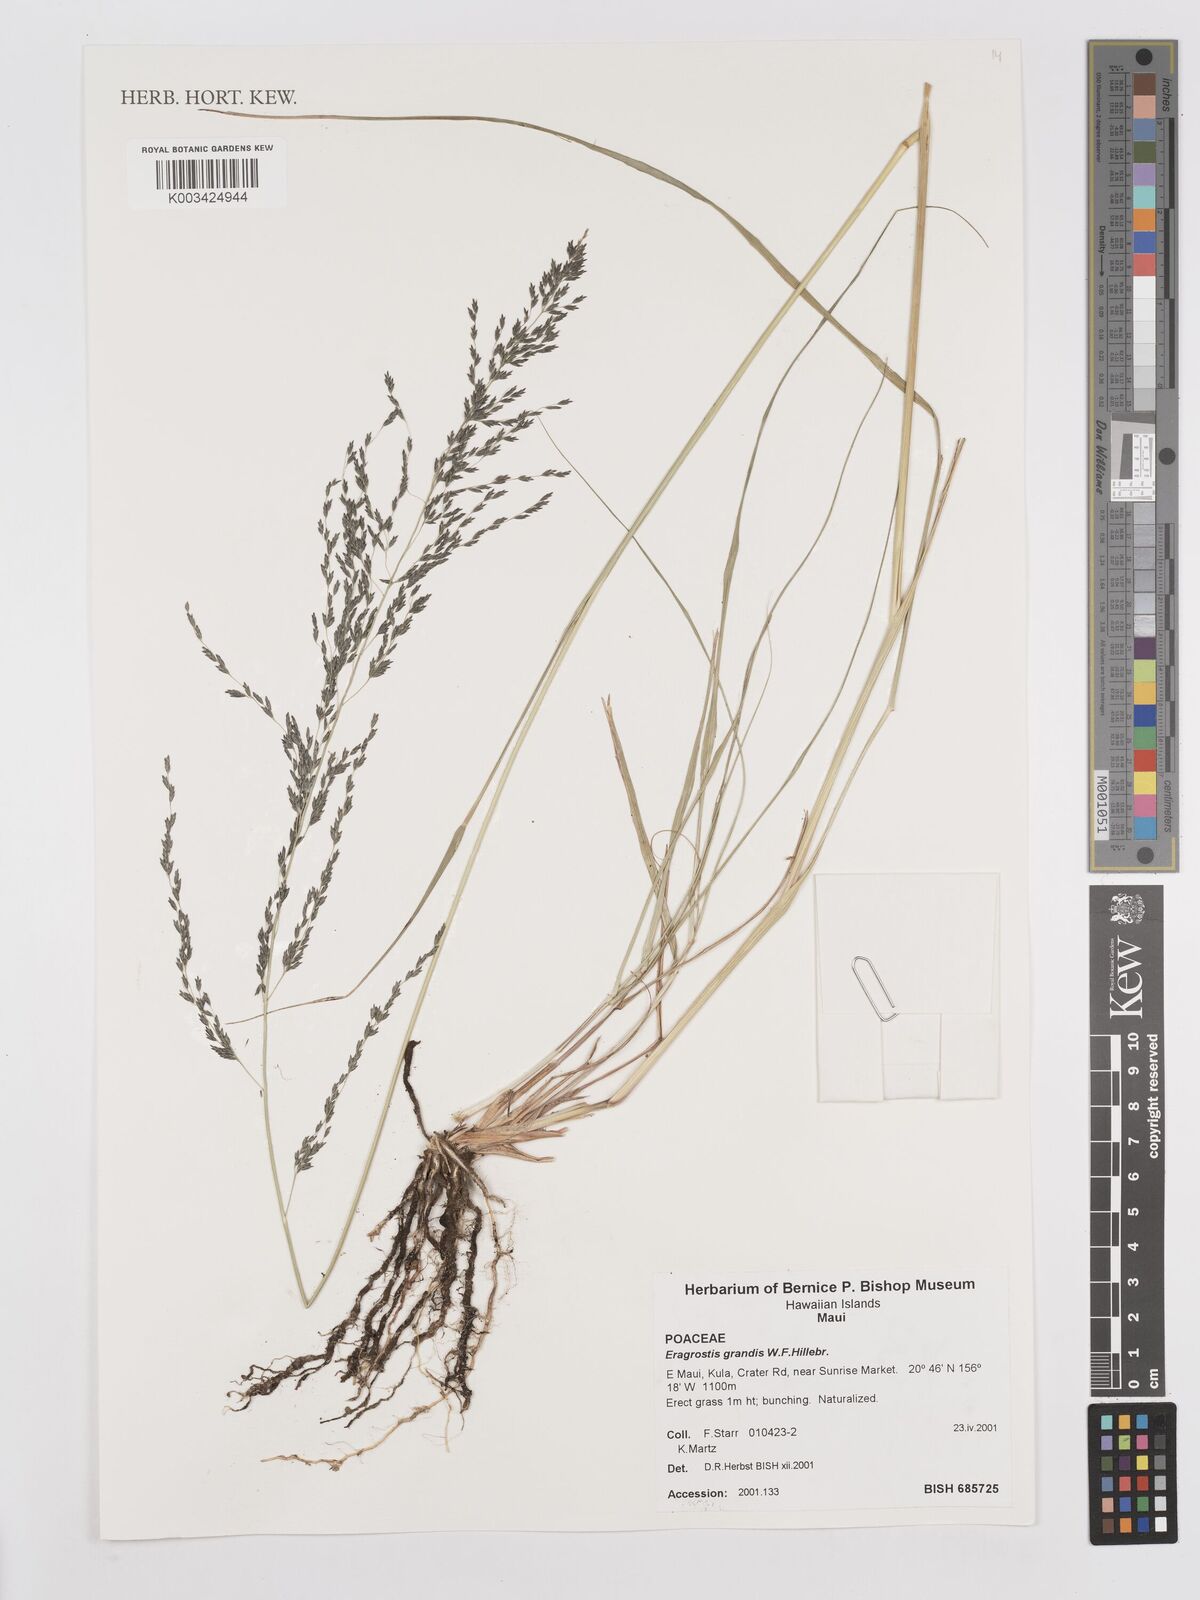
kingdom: Plantae
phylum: Tracheophyta
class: Liliopsida
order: Poales
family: Poaceae
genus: Eragrostis
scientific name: Eragrostis grandis
